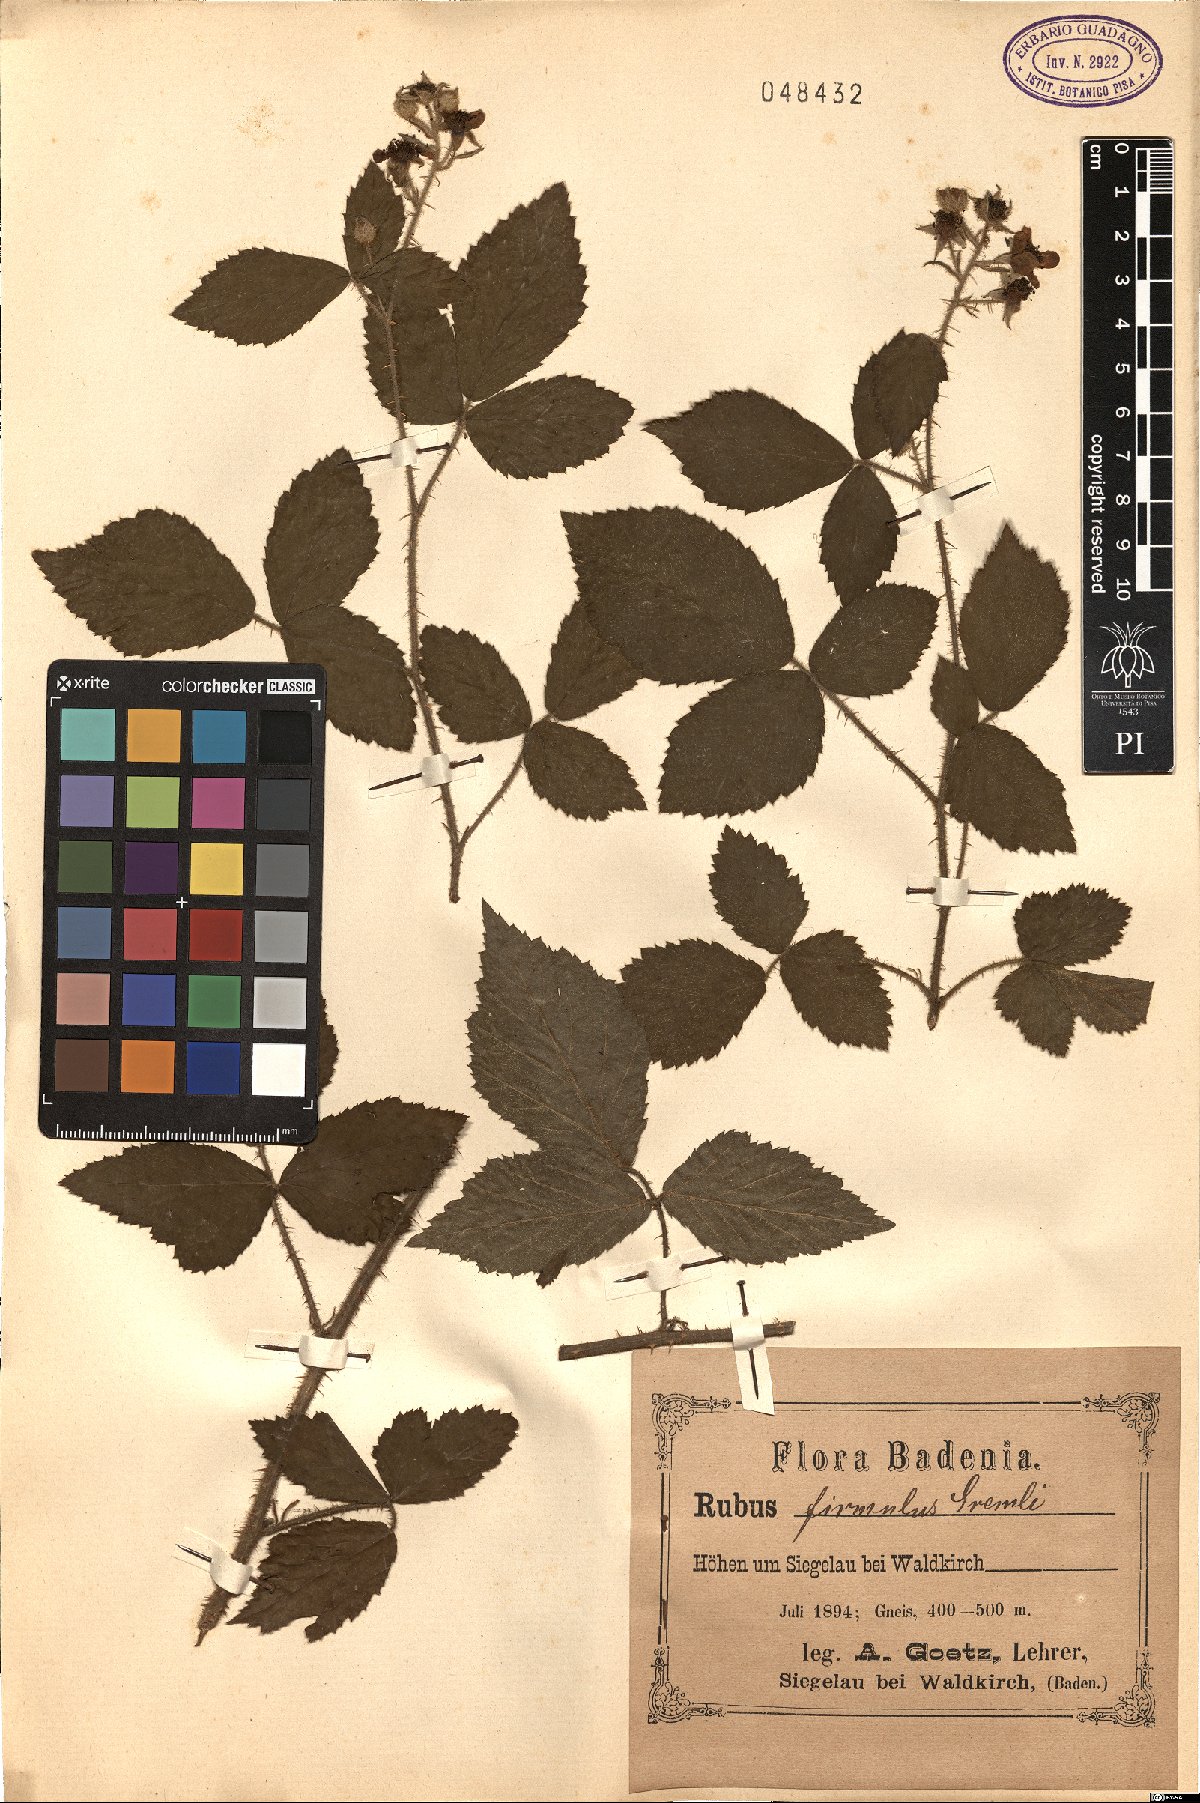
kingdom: Plantae
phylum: Tracheophyta
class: Magnoliopsida
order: Rosales
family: Rosaceae
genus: Rubus
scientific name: Rubus firmulus
